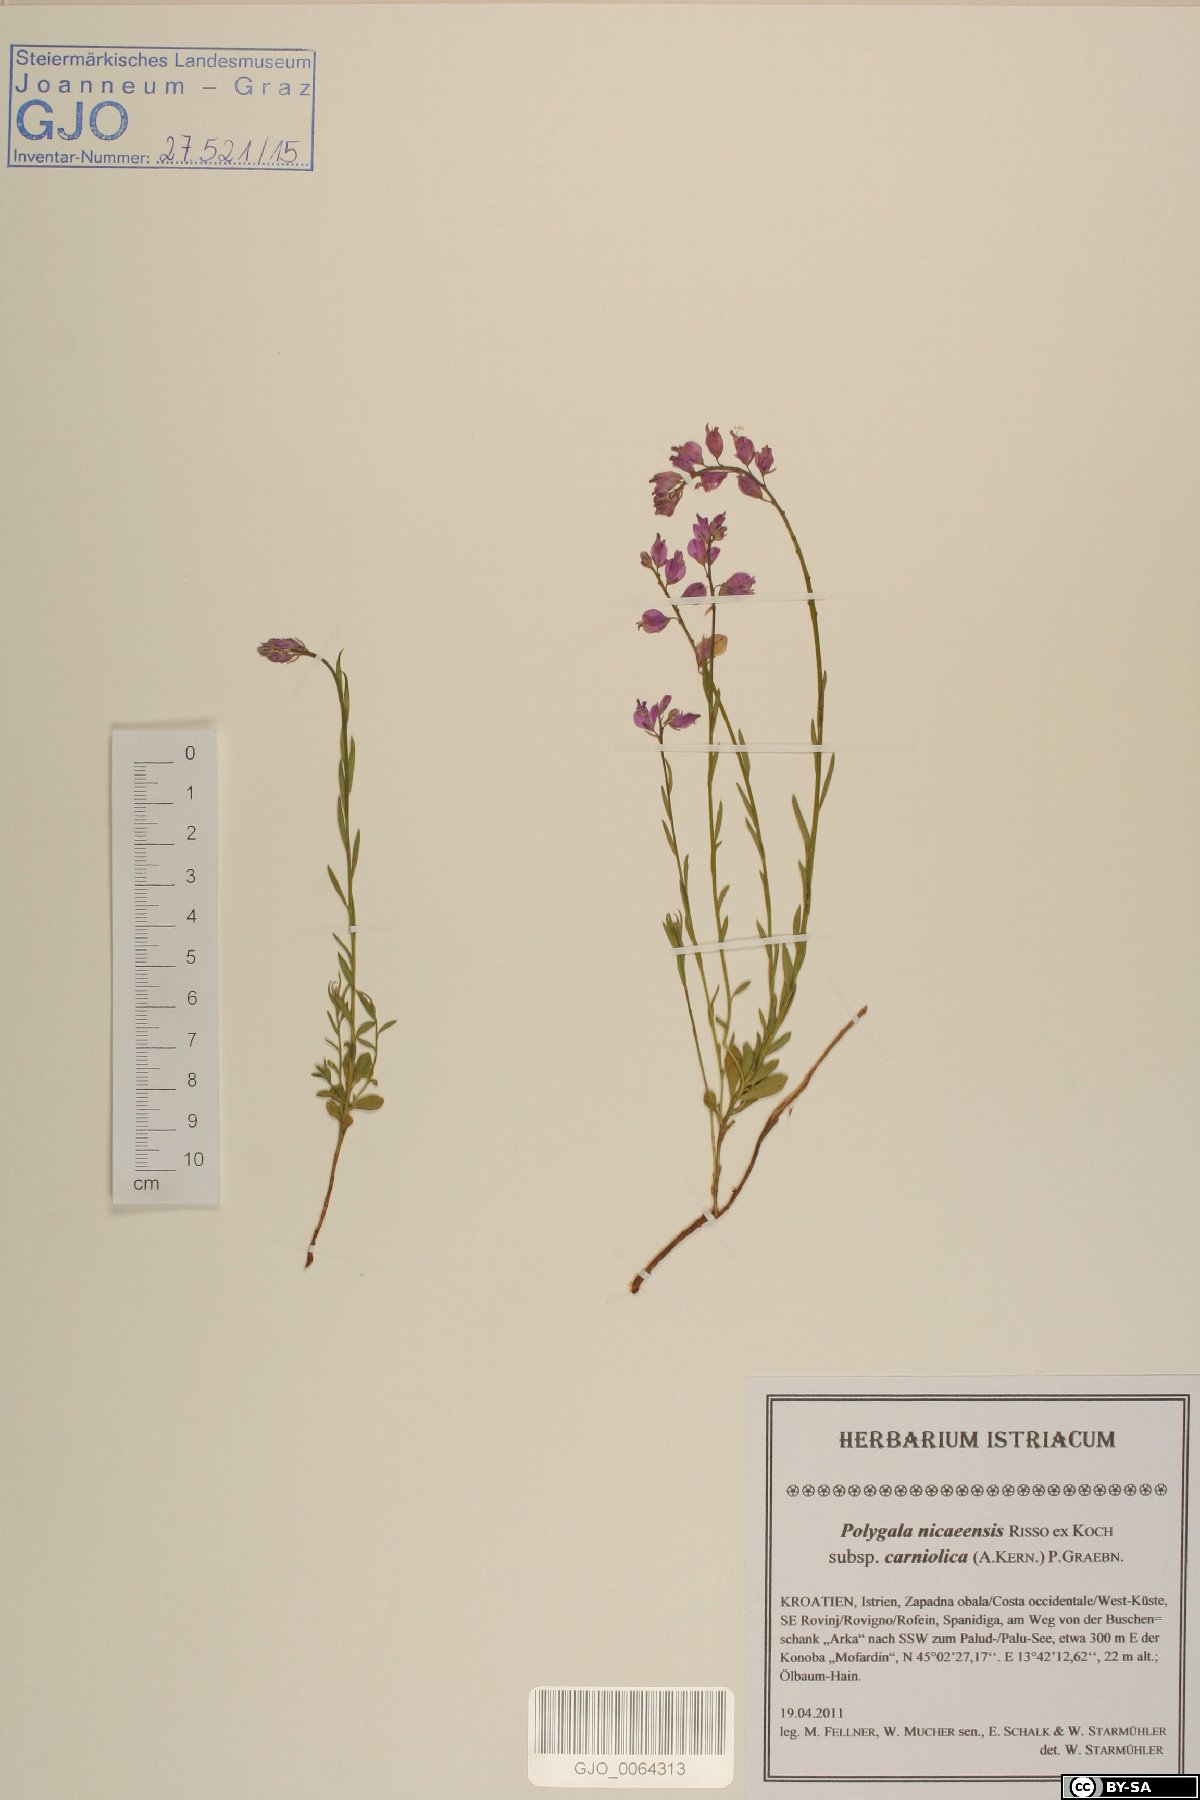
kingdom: Plantae
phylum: Tracheophyta
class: Magnoliopsida
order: Fabales
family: Polygalaceae
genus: Polygala
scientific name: Polygala
